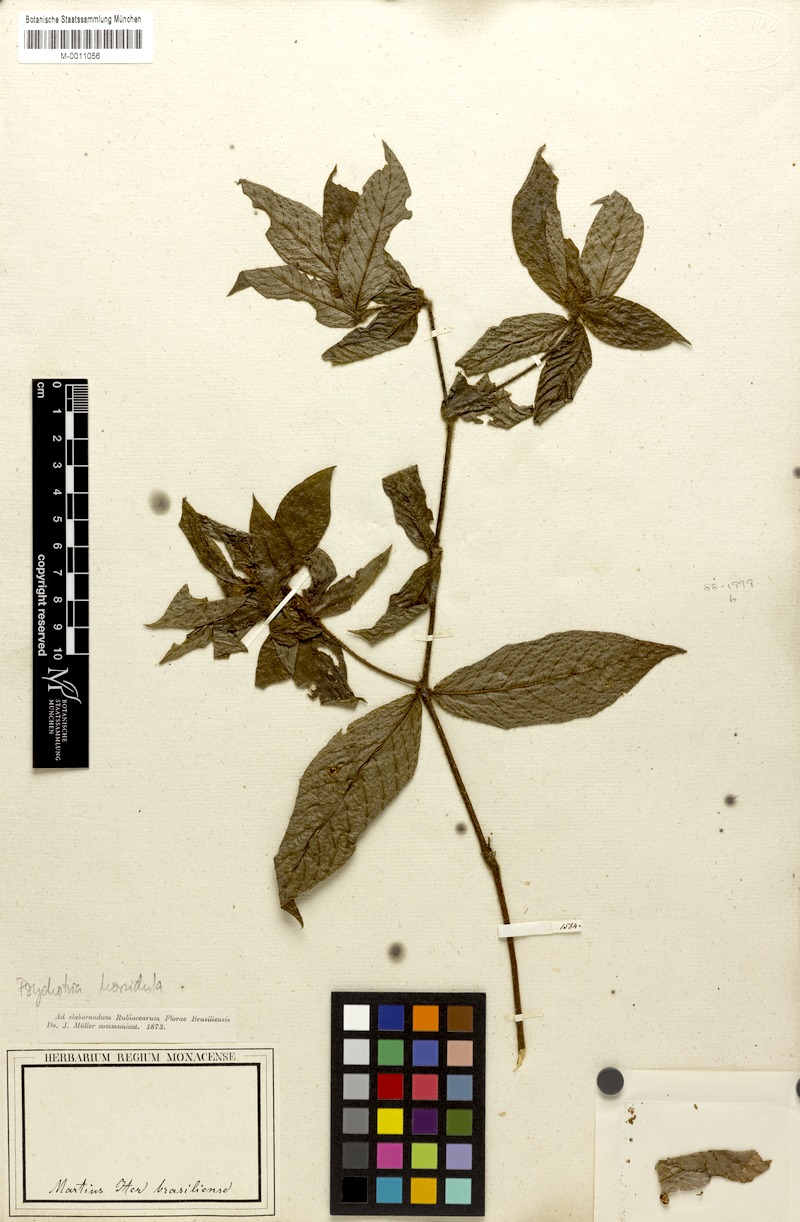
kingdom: Plantae
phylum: Tracheophyta
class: Magnoliopsida
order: Gentianales
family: Rubiaceae
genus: Palicourea
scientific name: Palicourea iodotricha
